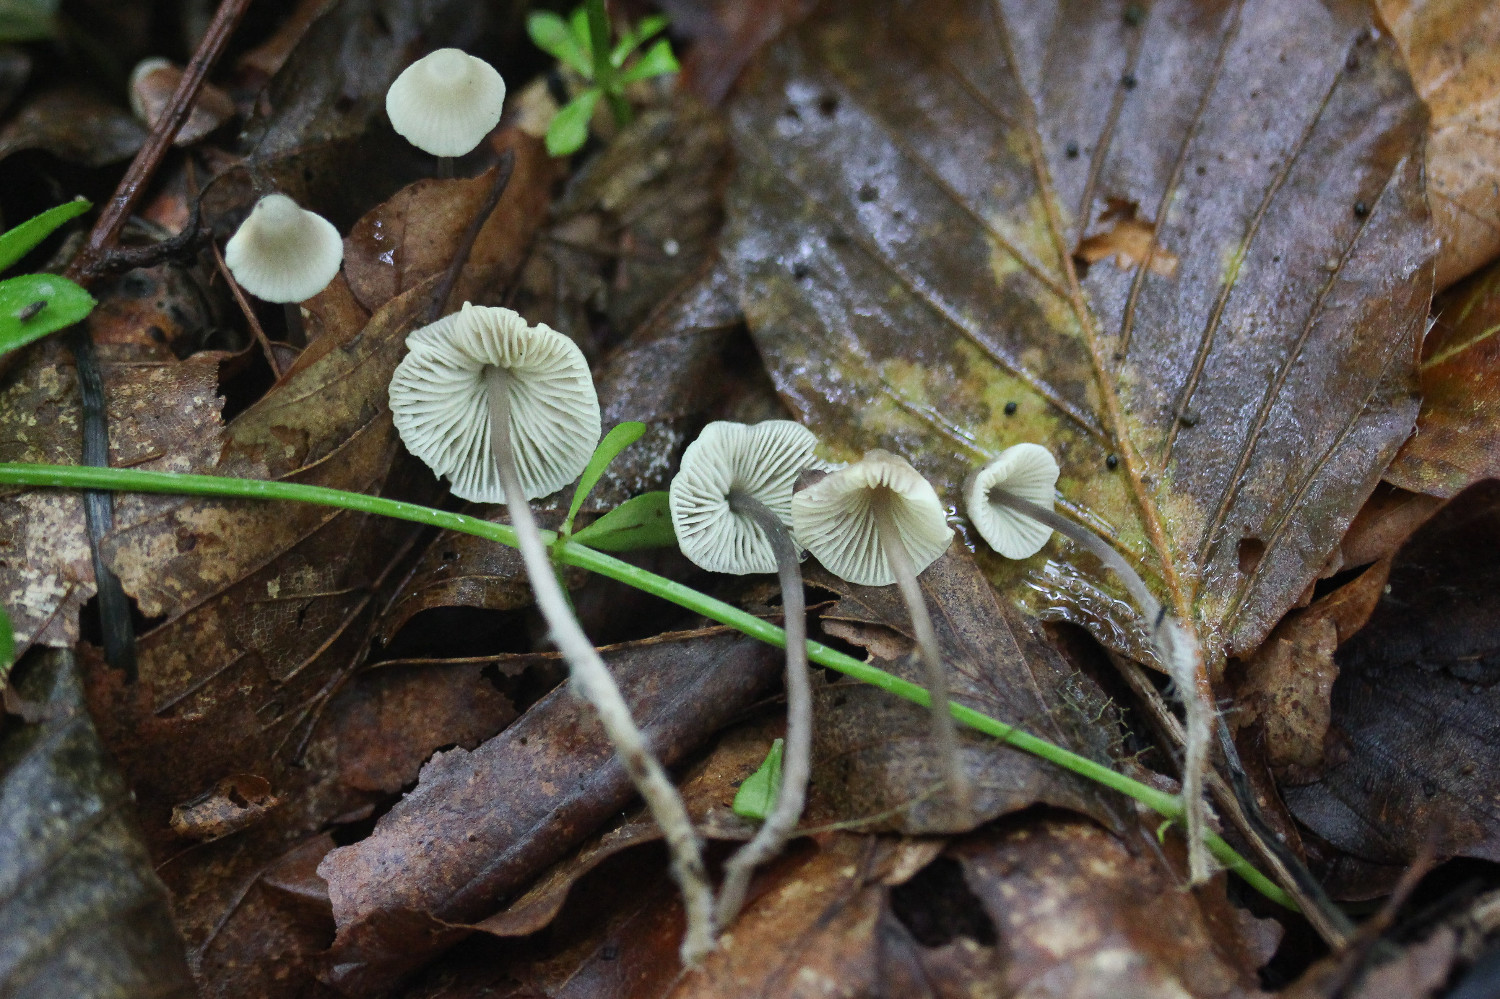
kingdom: Fungi
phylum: Basidiomycota
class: Agaricomycetes
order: Agaricales
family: Mycenaceae
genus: Mycena
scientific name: Mycena flavescens
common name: grågul huesvamp
